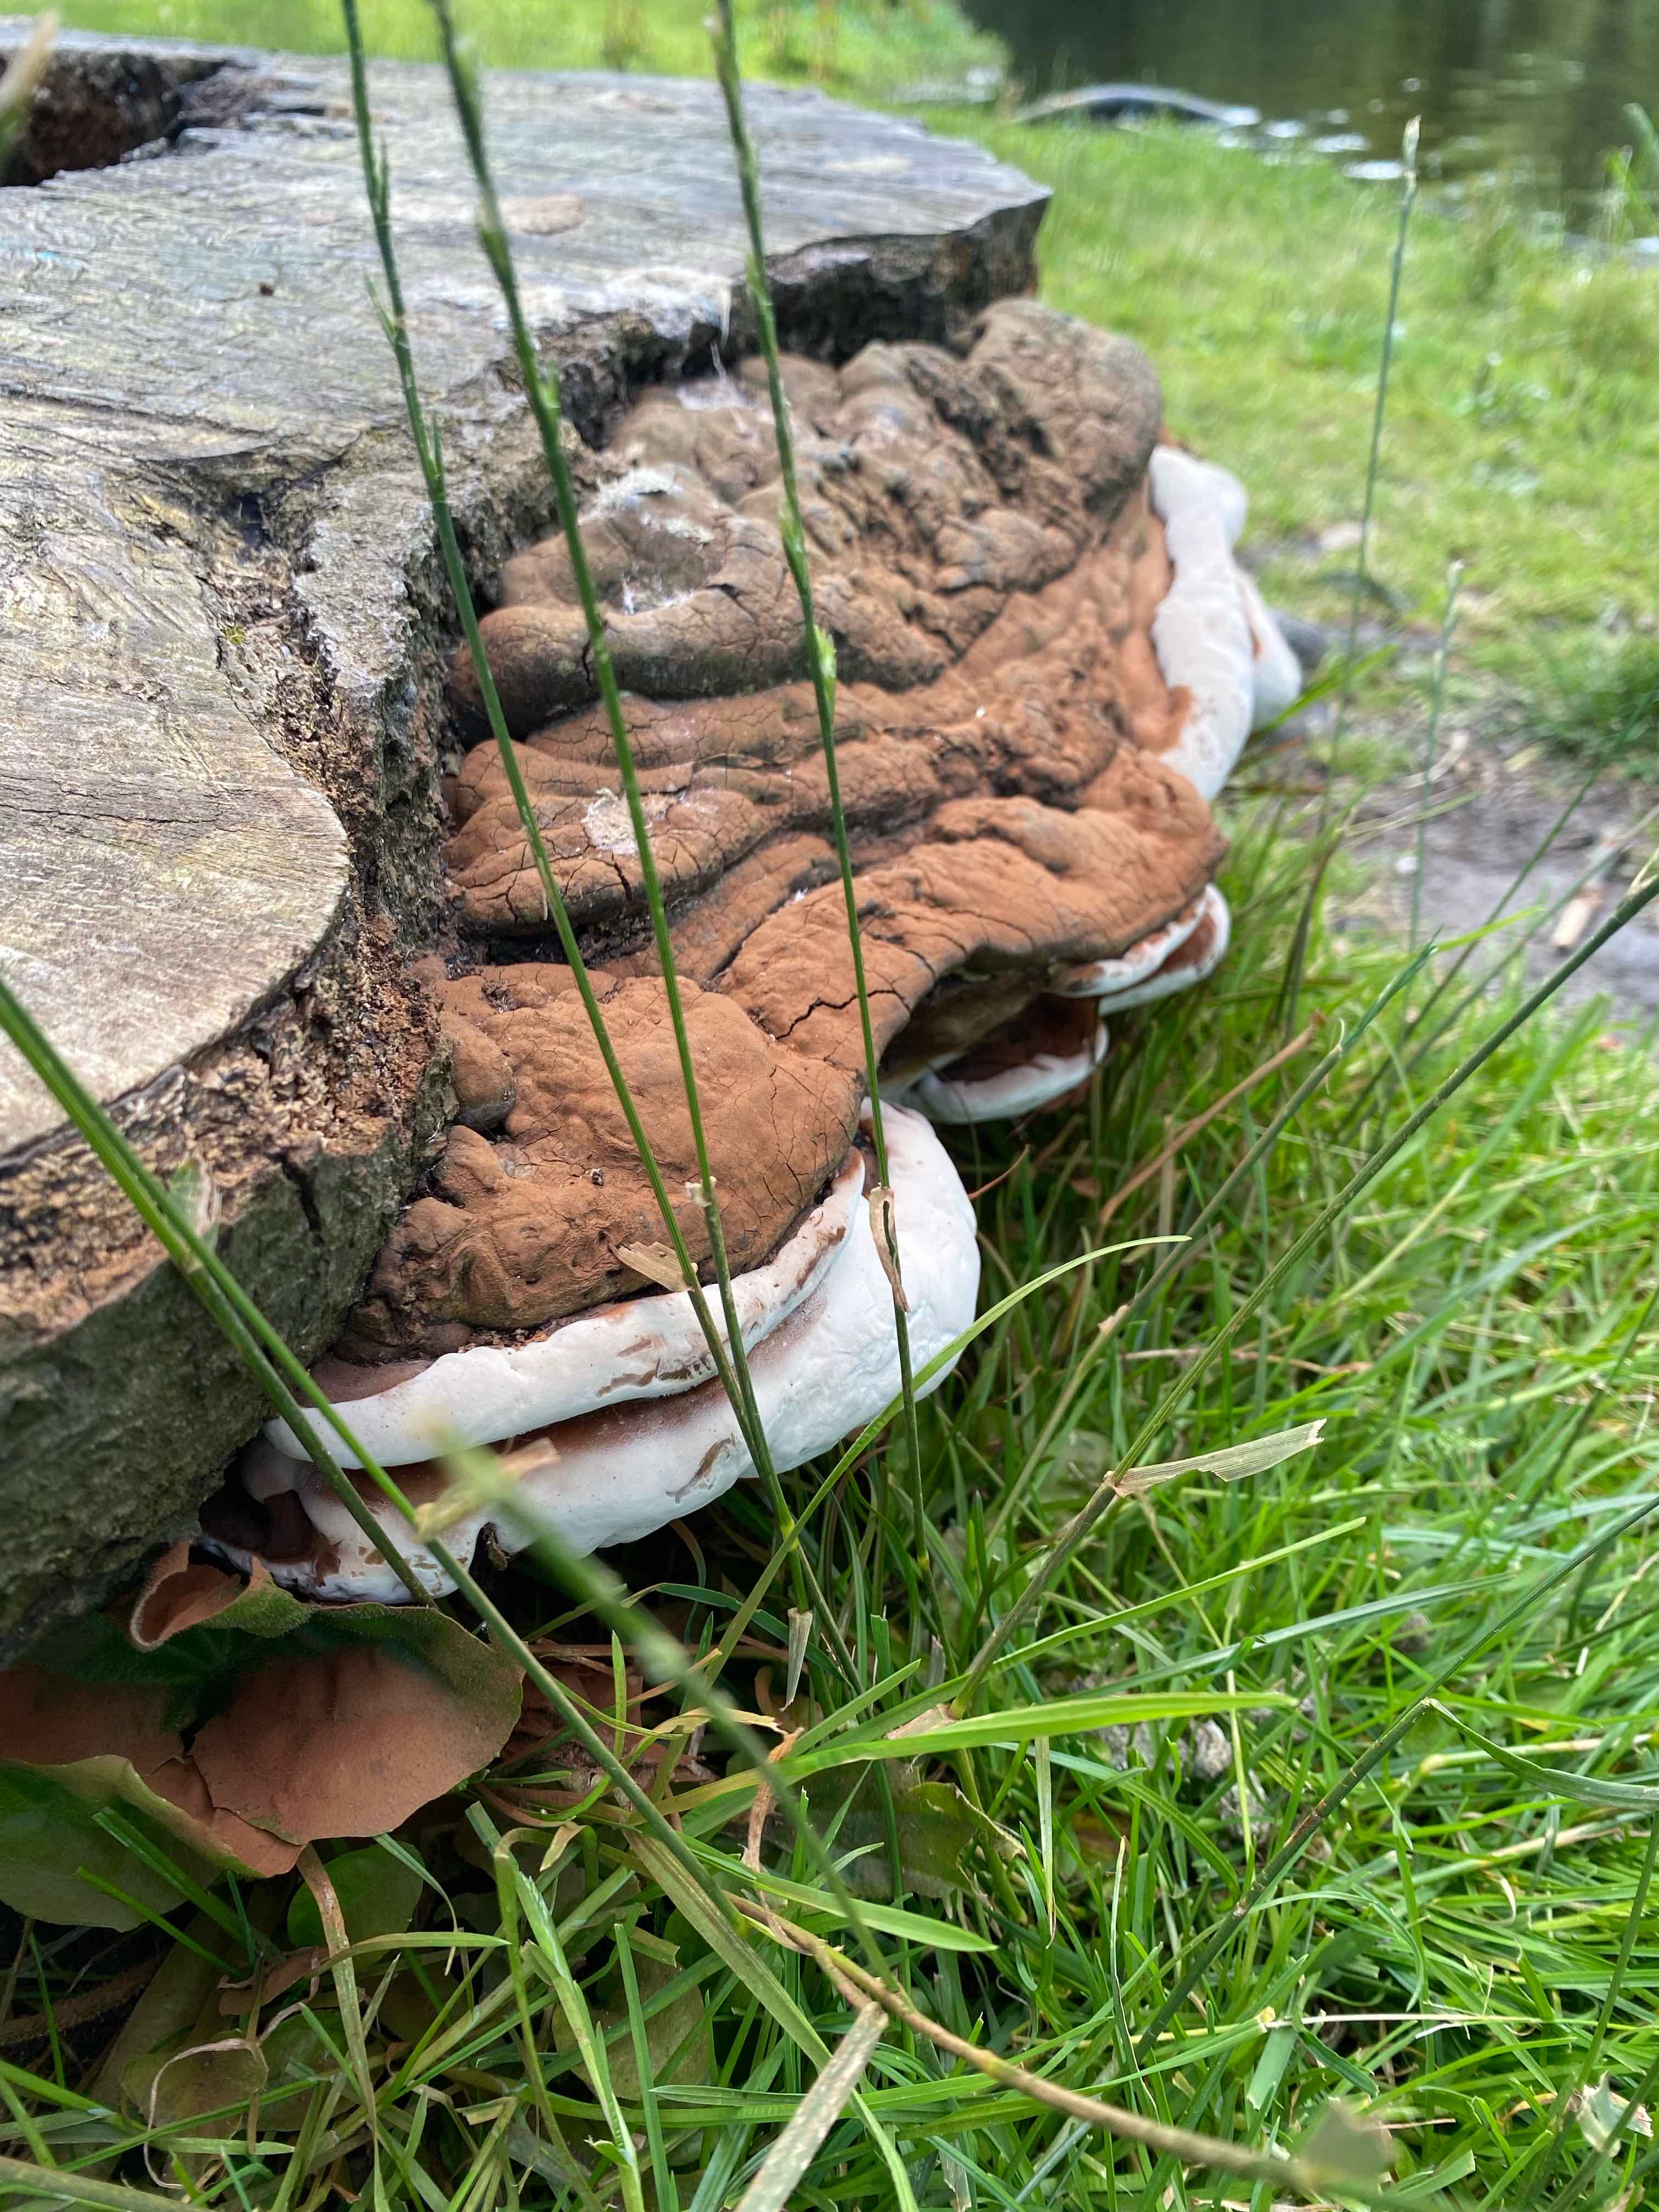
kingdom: Fungi
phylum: Basidiomycota
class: Agaricomycetes
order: Polyporales
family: Polyporaceae
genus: Ganoderma
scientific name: Ganoderma applanatum
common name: flad lakporesvamp
